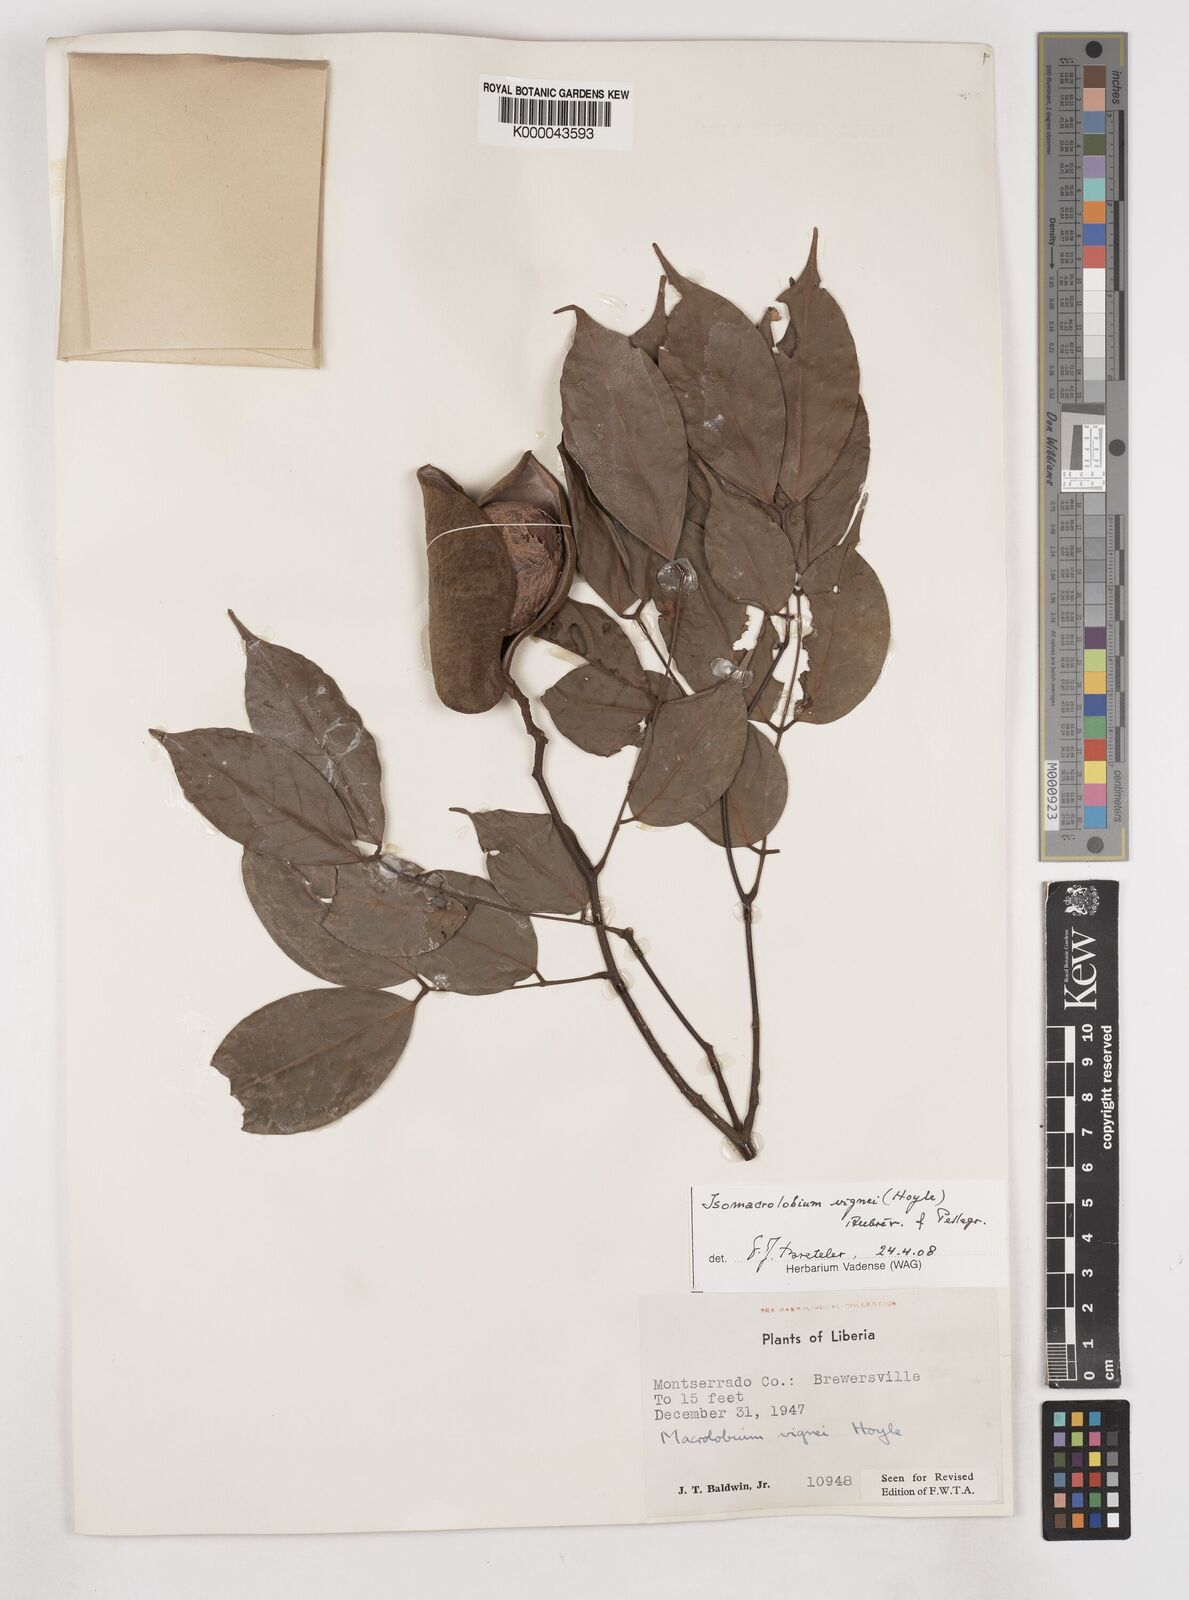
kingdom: Plantae
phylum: Tracheophyta
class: Magnoliopsida
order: Fabales
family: Fabaceae
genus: Englerodendron
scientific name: Englerodendron vignei
